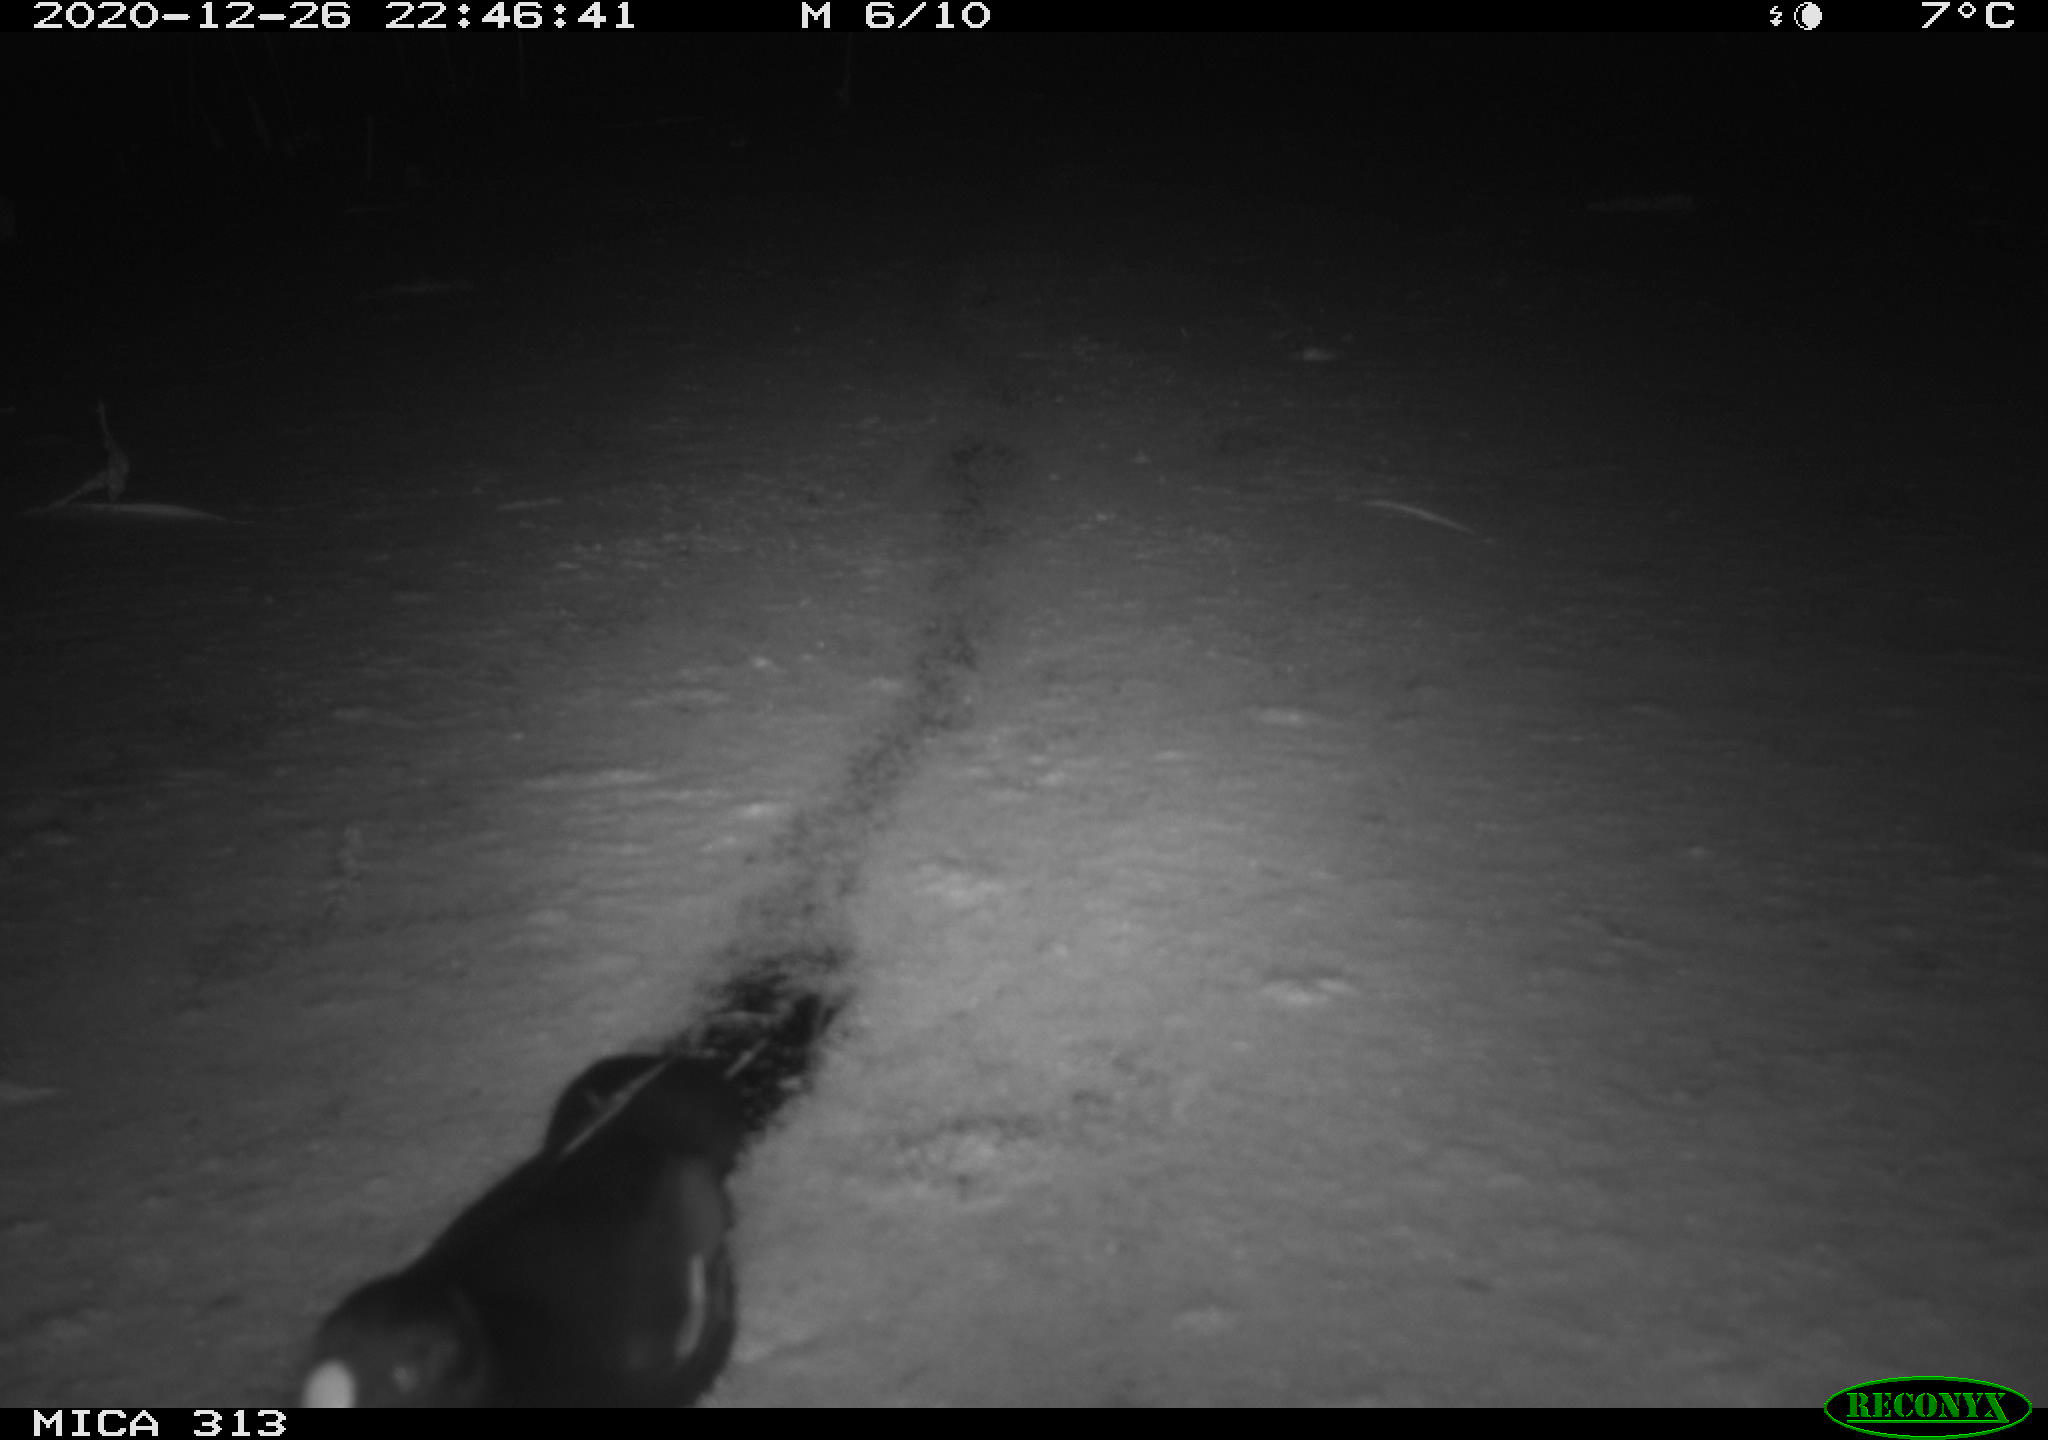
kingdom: Animalia
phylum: Chordata
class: Aves
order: Gruiformes
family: Rallidae
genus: Gallinula
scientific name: Gallinula chloropus
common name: Common moorhen
